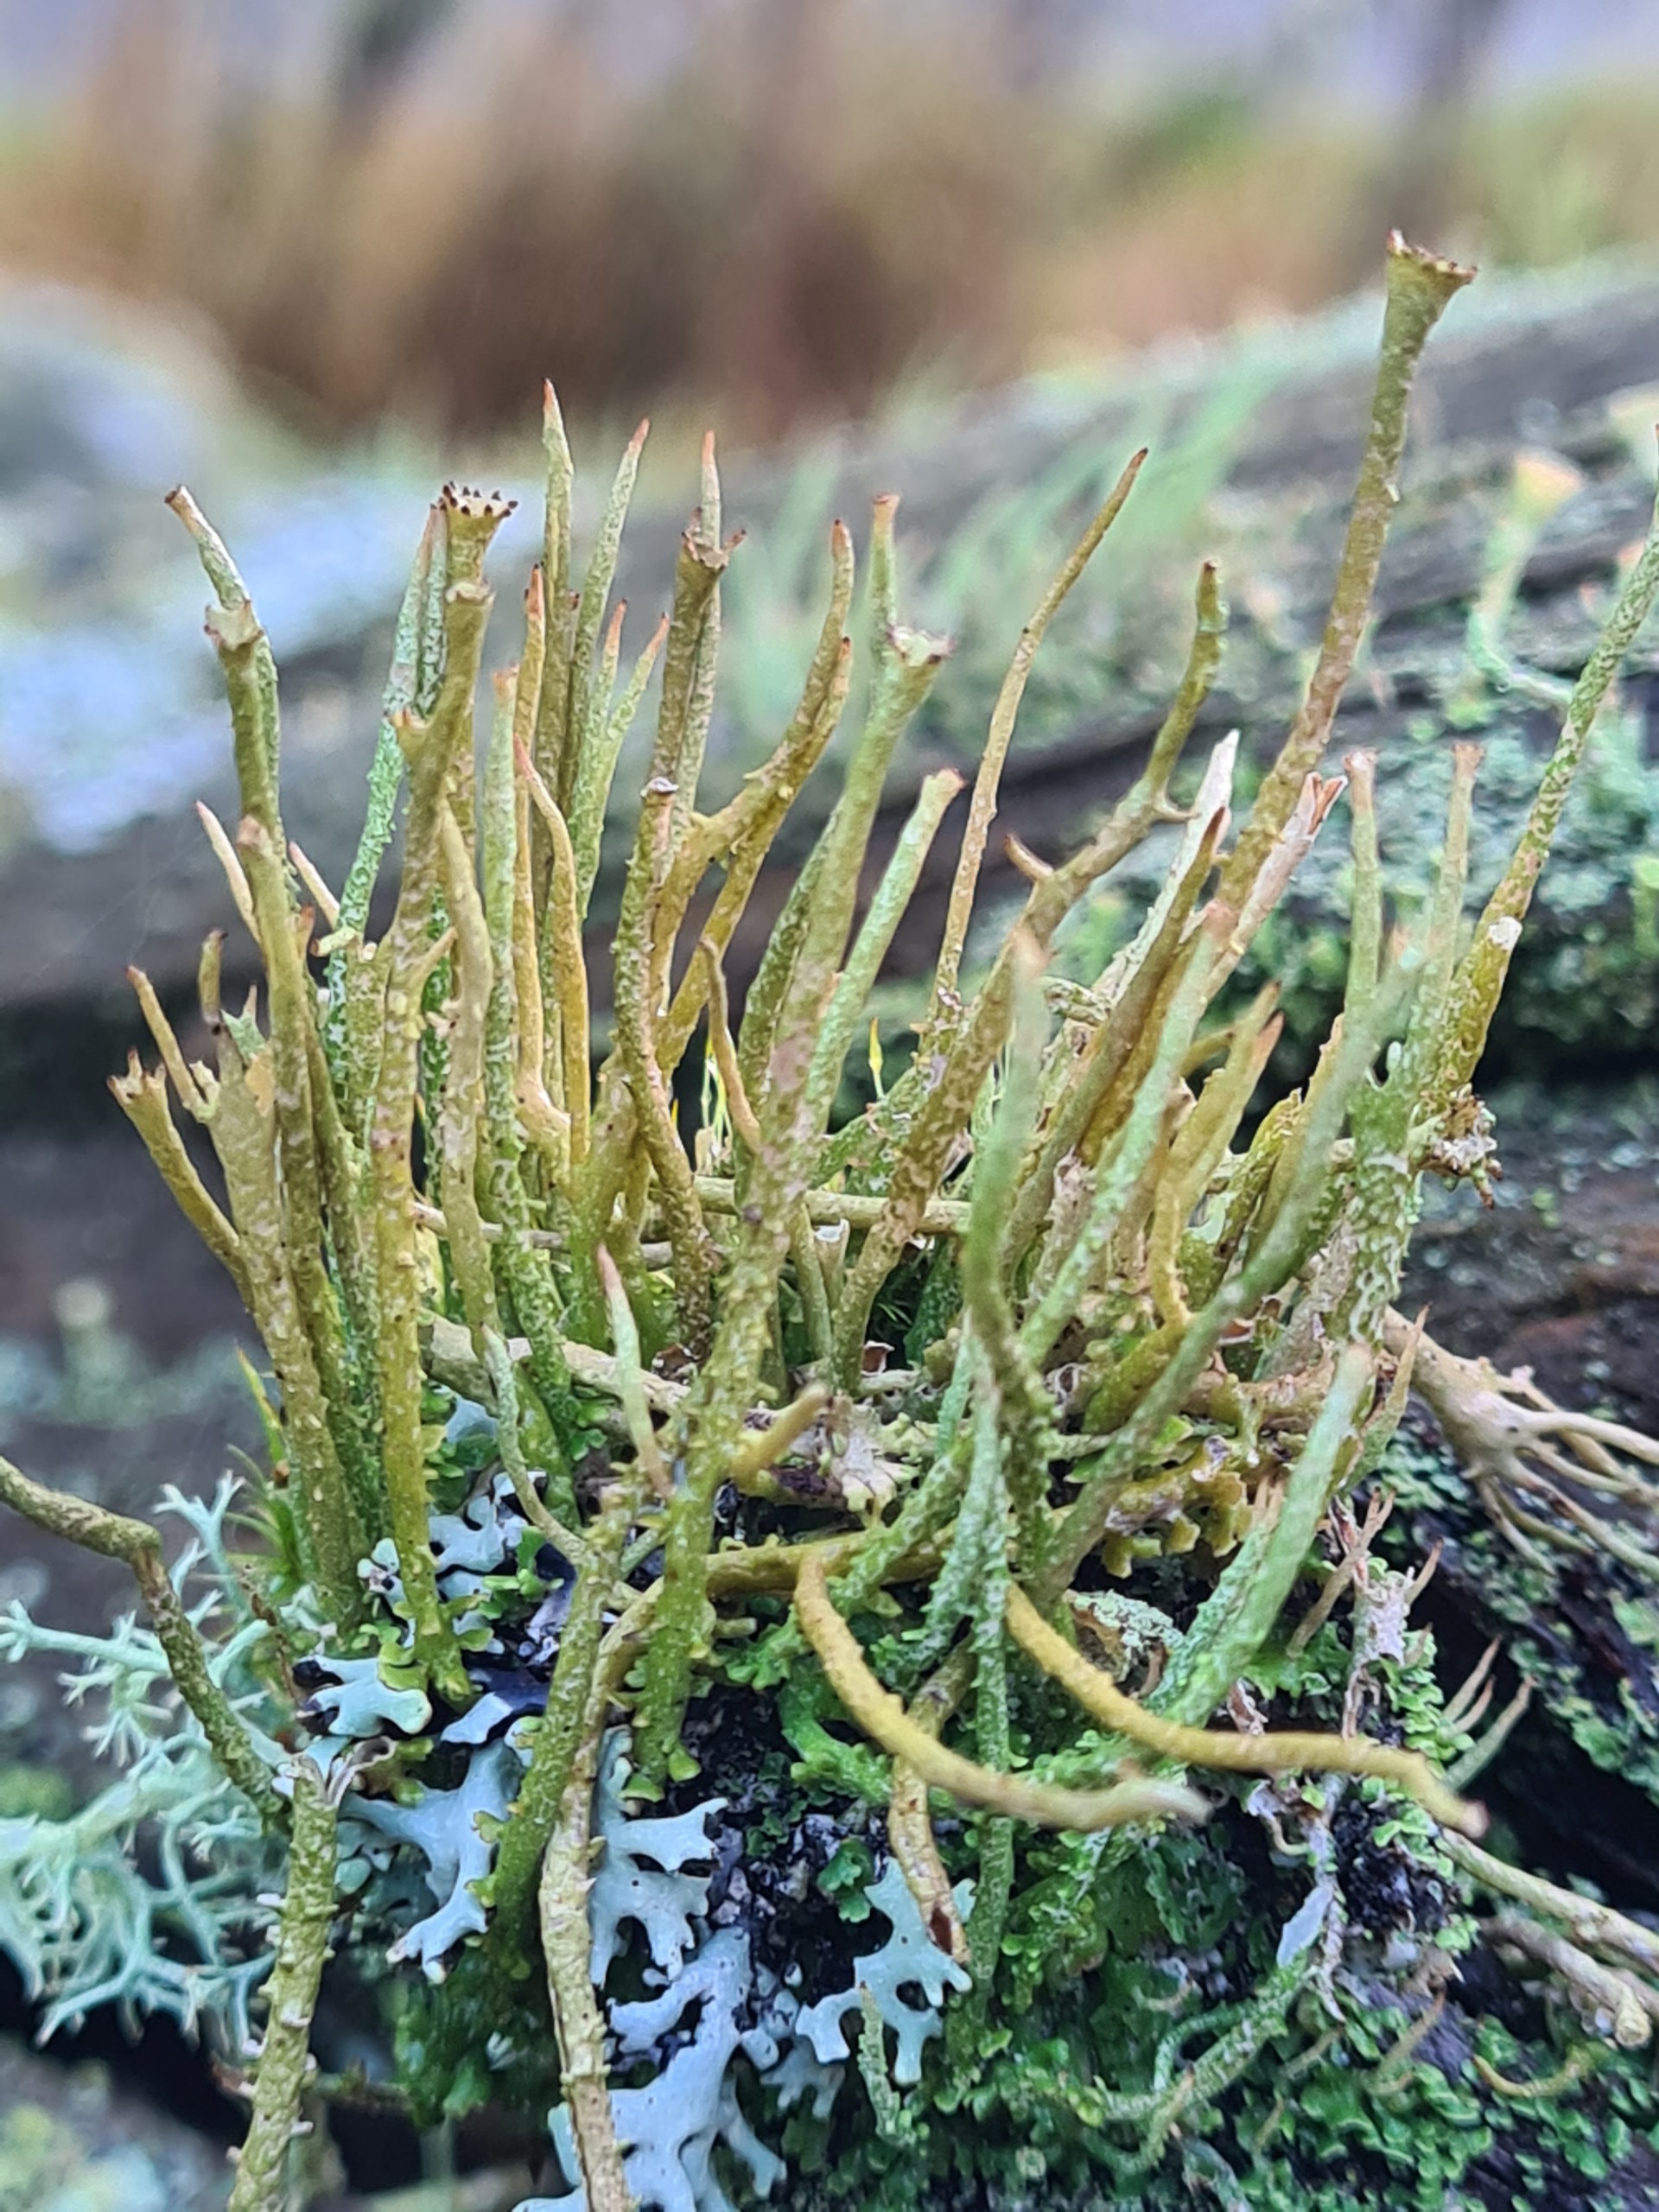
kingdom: Fungi
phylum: Ascomycota
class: Lecanoromycetes
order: Lecanorales
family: Cladoniaceae
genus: Cladonia
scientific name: Cladonia gracilis
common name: Slank bægerlav
